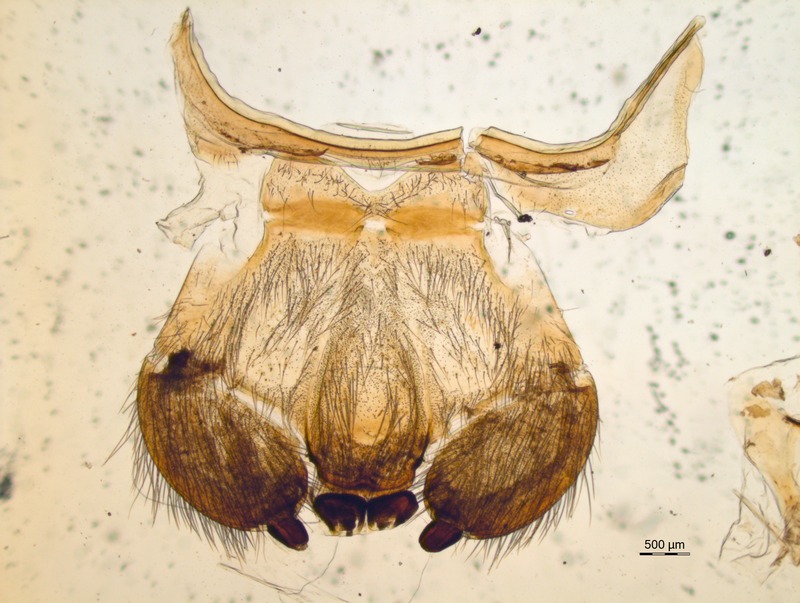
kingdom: Animalia
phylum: Arthropoda
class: Diplopoda
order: Sphaerotheriida
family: Zephroniidae
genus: Sphaeropoeus
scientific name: Sphaeropoeus malaccanus
